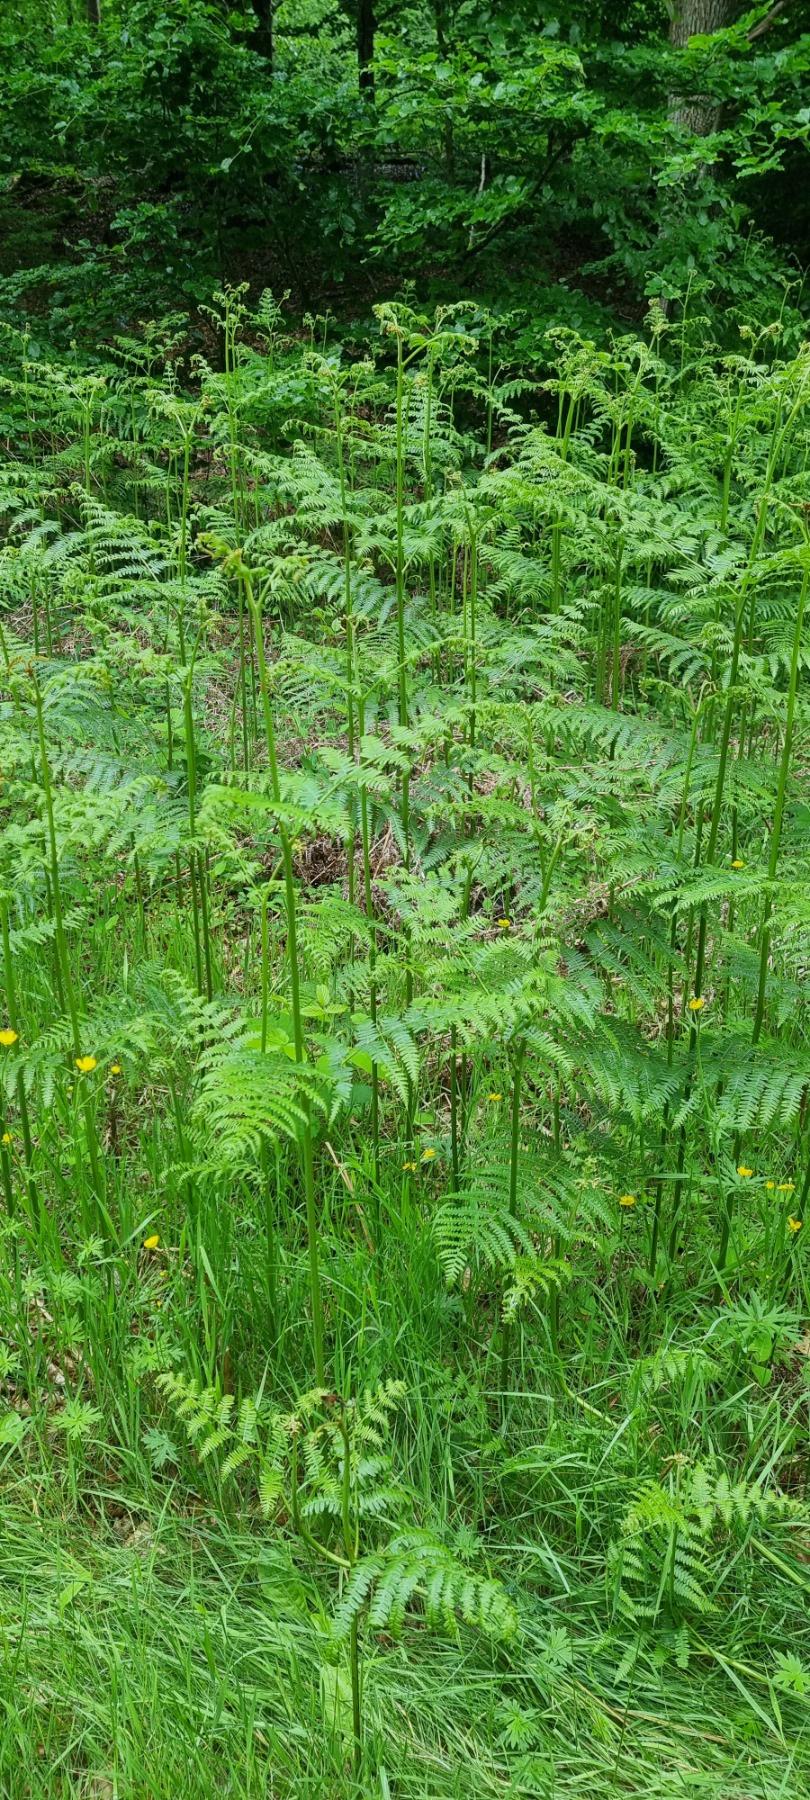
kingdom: Plantae
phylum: Tracheophyta
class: Polypodiopsida
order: Polypodiales
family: Dennstaedtiaceae
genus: Pteridium
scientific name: Pteridium aquilinum
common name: Ørnebregne
